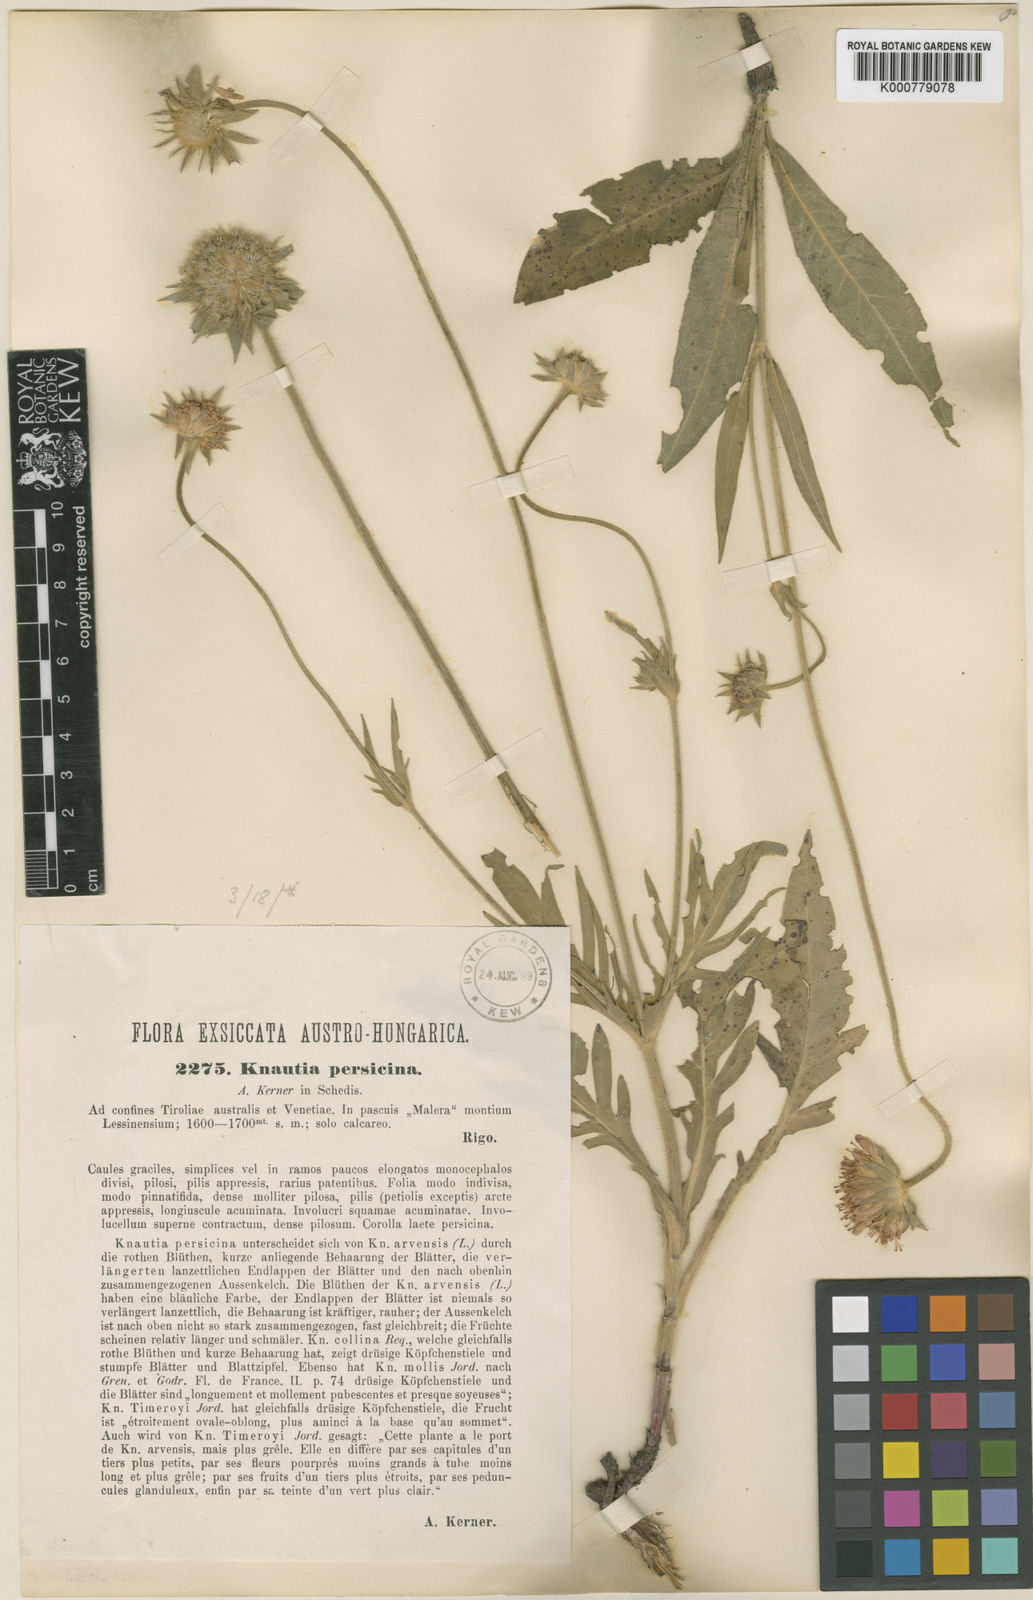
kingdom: Plantae
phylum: Tracheophyta
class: Magnoliopsida
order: Dipsacales
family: Caprifoliaceae
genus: Knautia
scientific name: Knautia persicina
